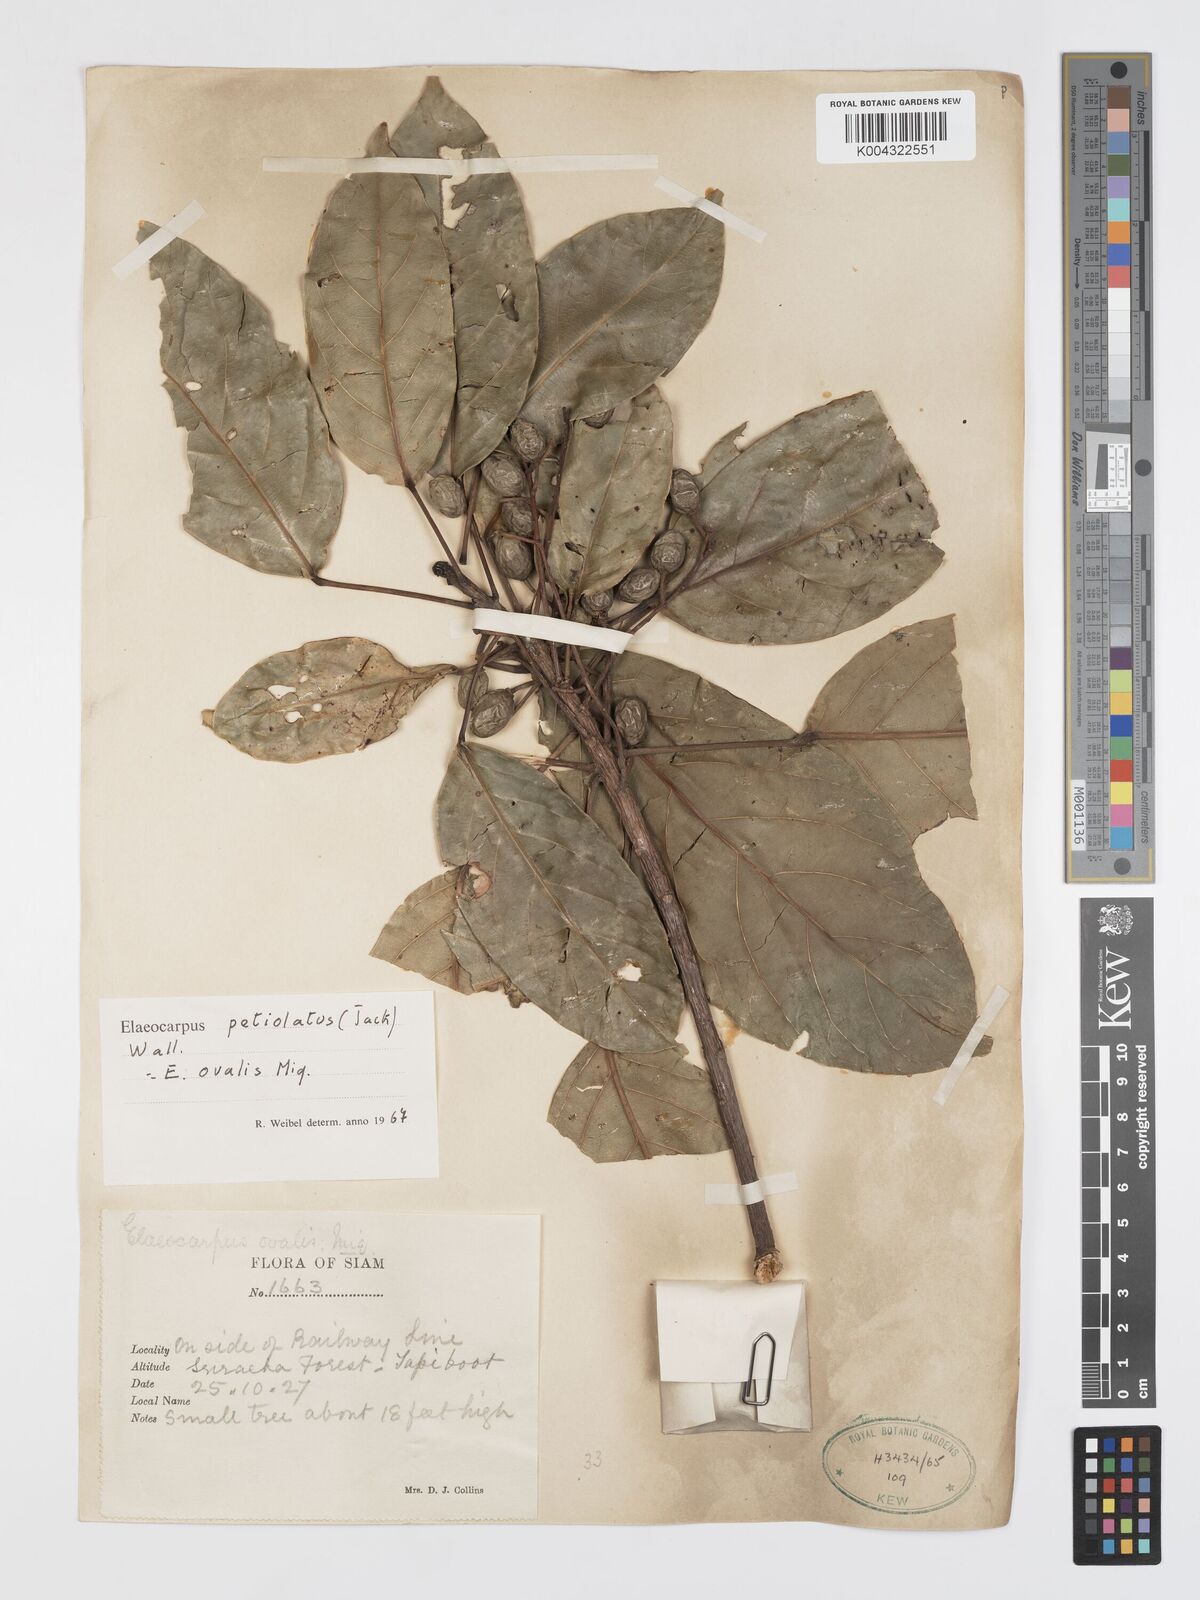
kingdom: Plantae
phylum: Tracheophyta
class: Magnoliopsida
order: Oxalidales
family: Elaeocarpaceae
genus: Elaeocarpus
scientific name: Elaeocarpus petiolatus
